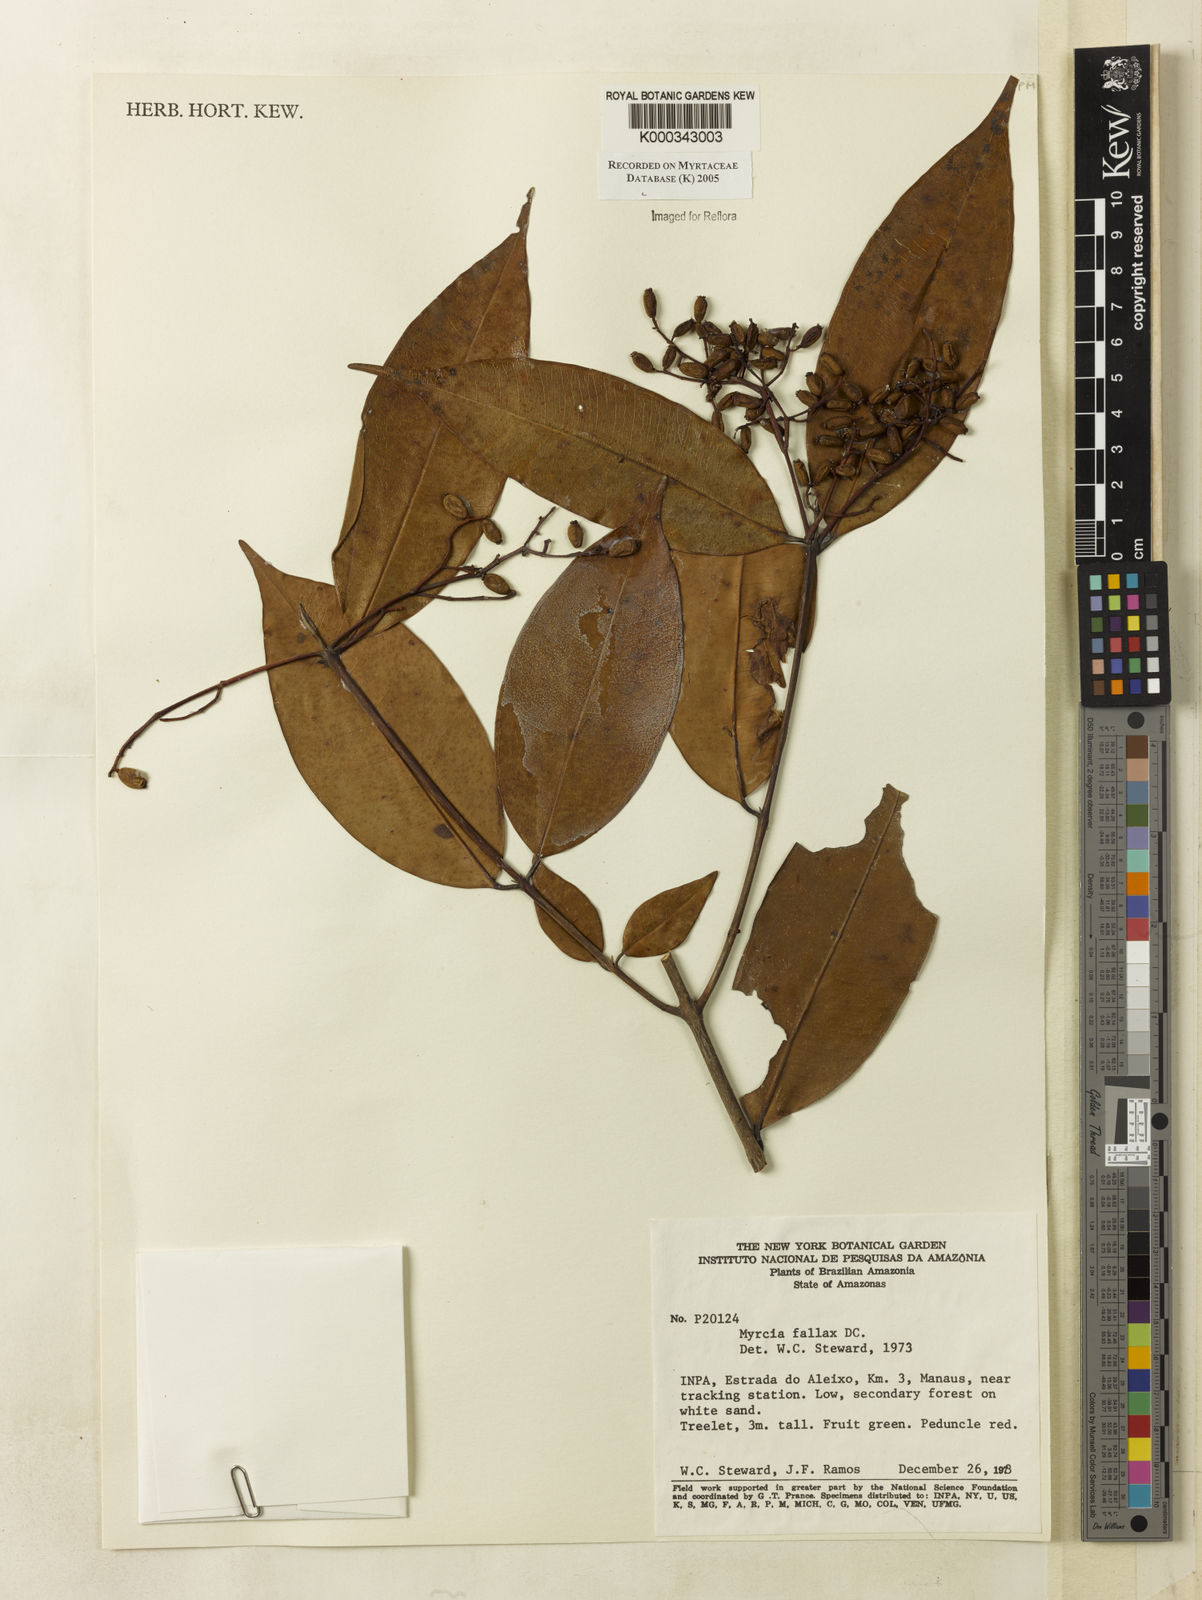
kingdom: Plantae
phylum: Tracheophyta
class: Magnoliopsida
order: Myrtales
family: Myrtaceae
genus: Myrcia
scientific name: Myrcia splendens
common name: Surinam cherry
